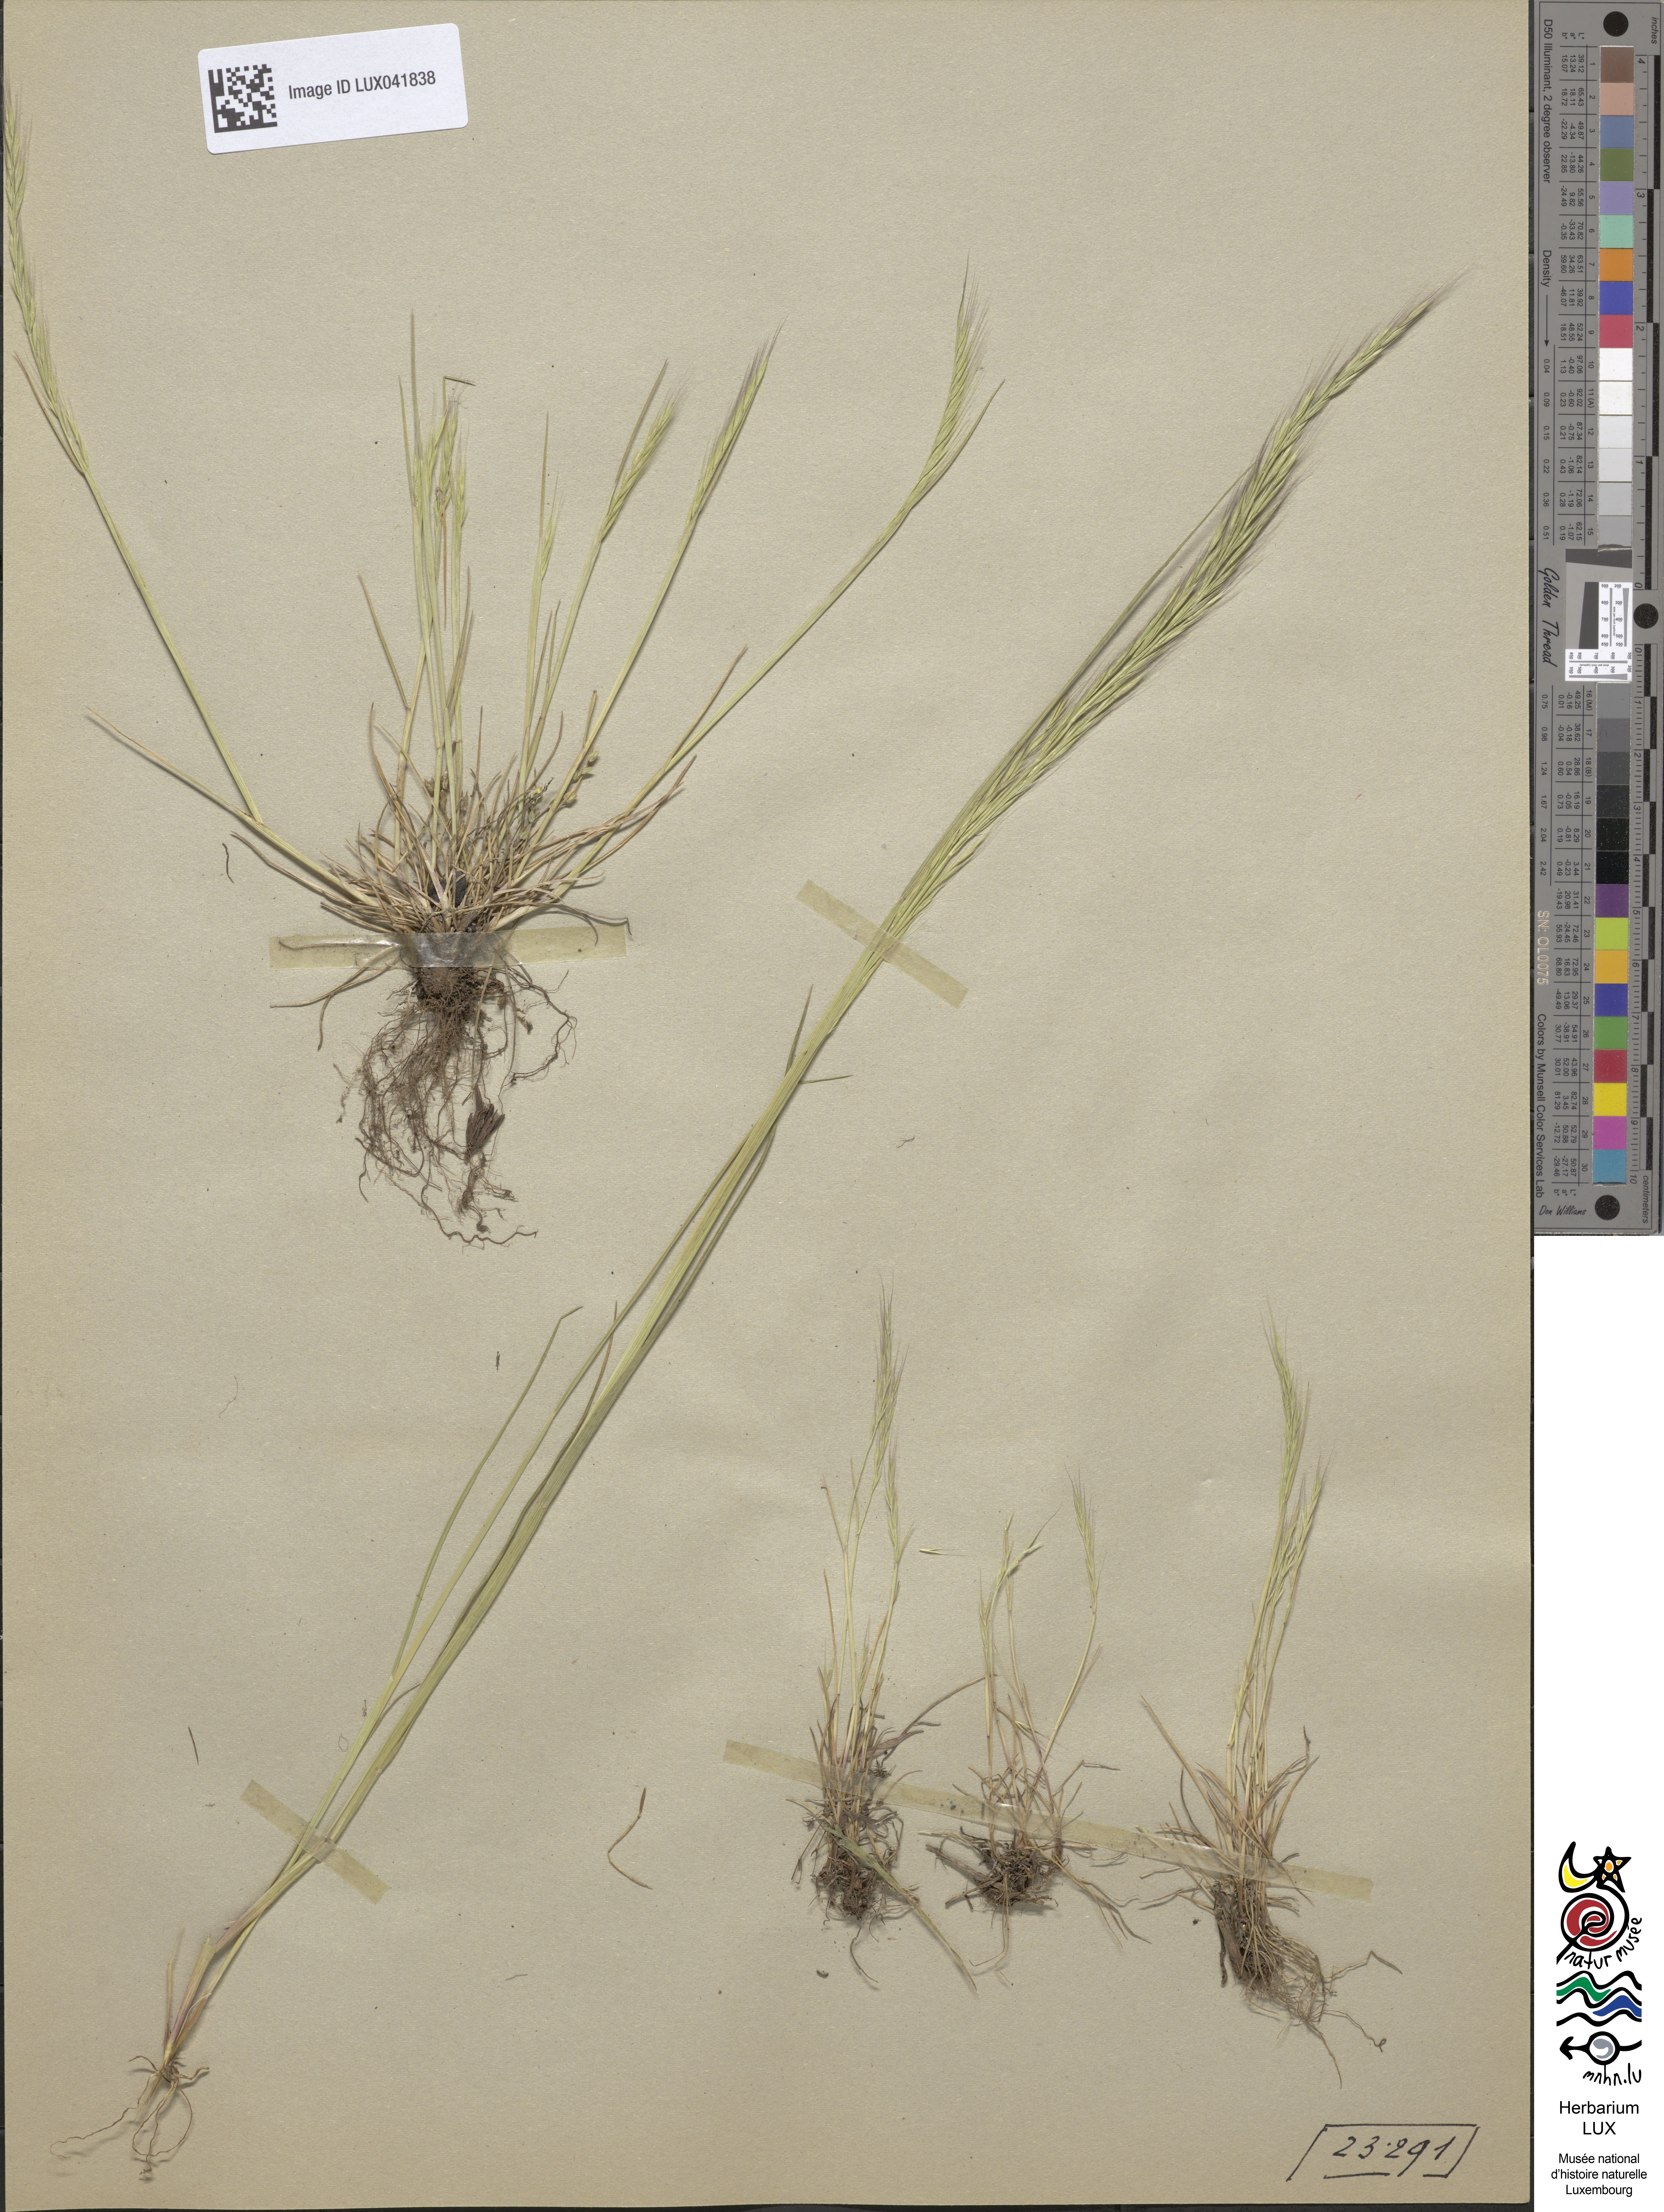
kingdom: Plantae
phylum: Tracheophyta
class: Liliopsida
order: Poales
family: Poaceae
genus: Festuca
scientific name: Festuca myuros
